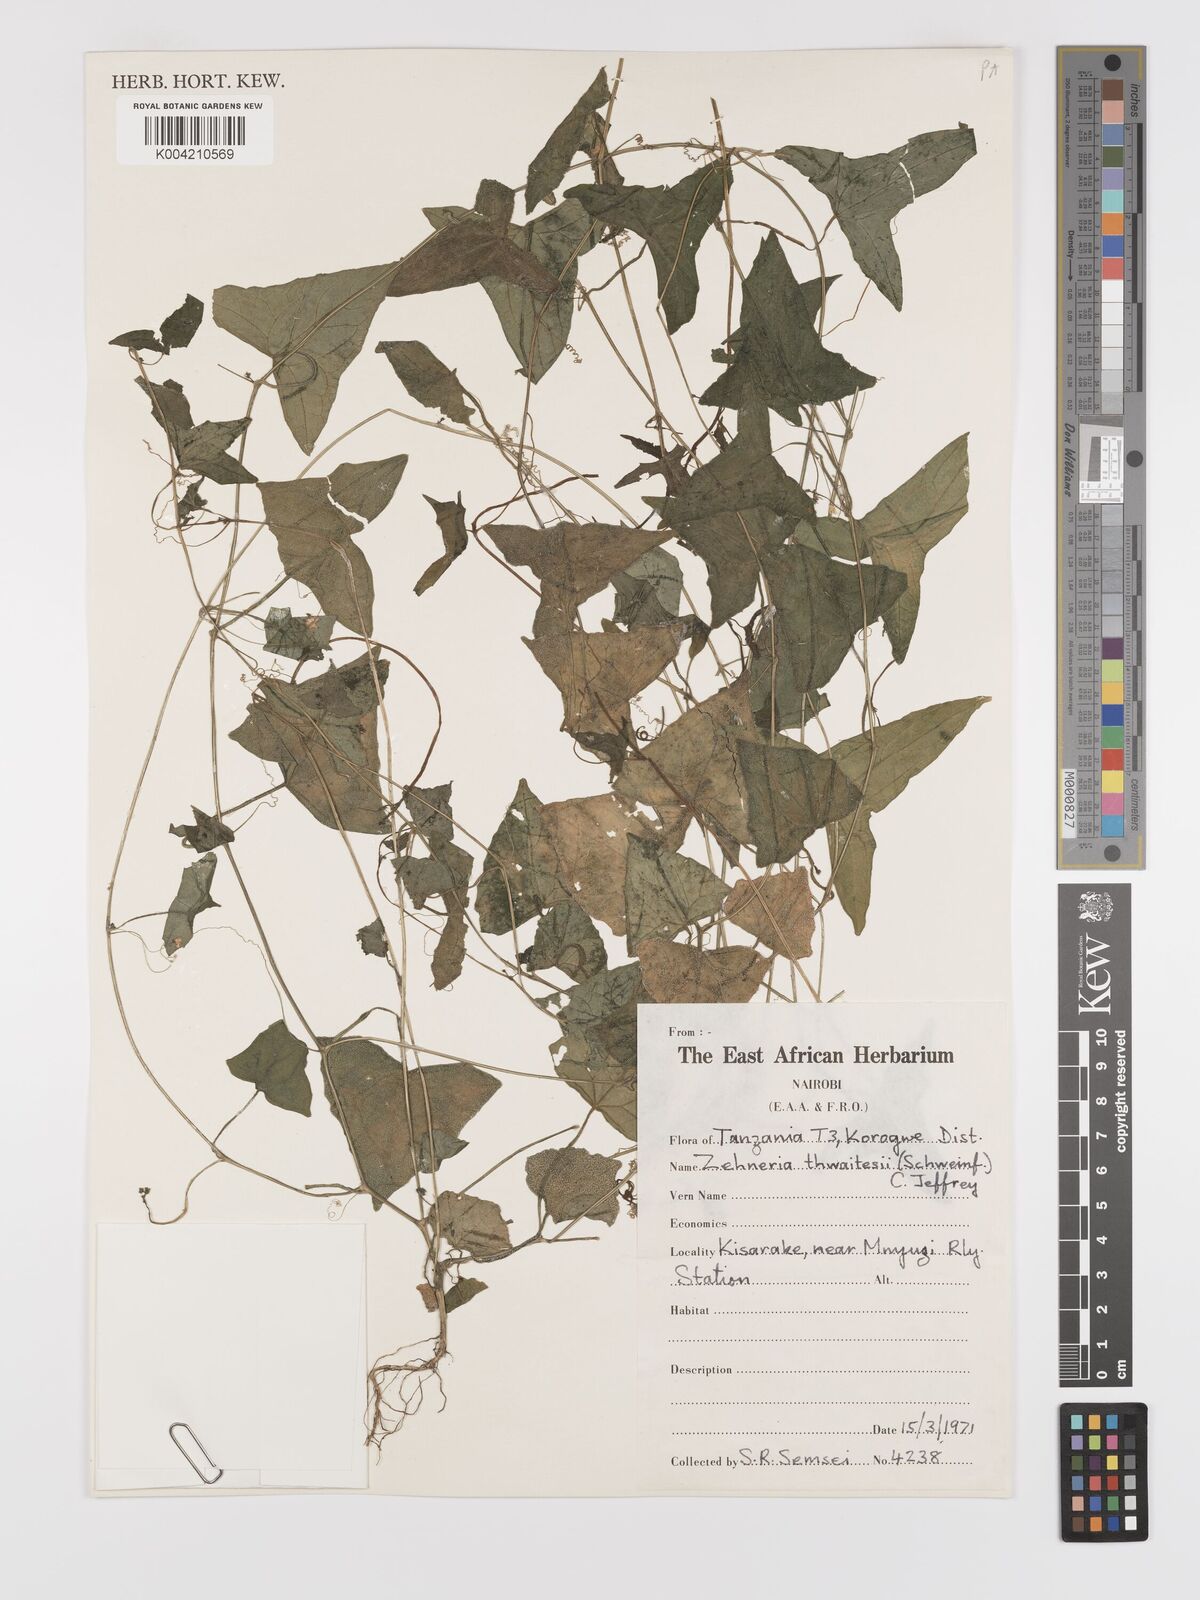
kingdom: Plantae
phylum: Tracheophyta
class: Magnoliopsida
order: Cucurbitales
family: Cucurbitaceae
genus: Zehneria
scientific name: Zehneria thwaitesii
